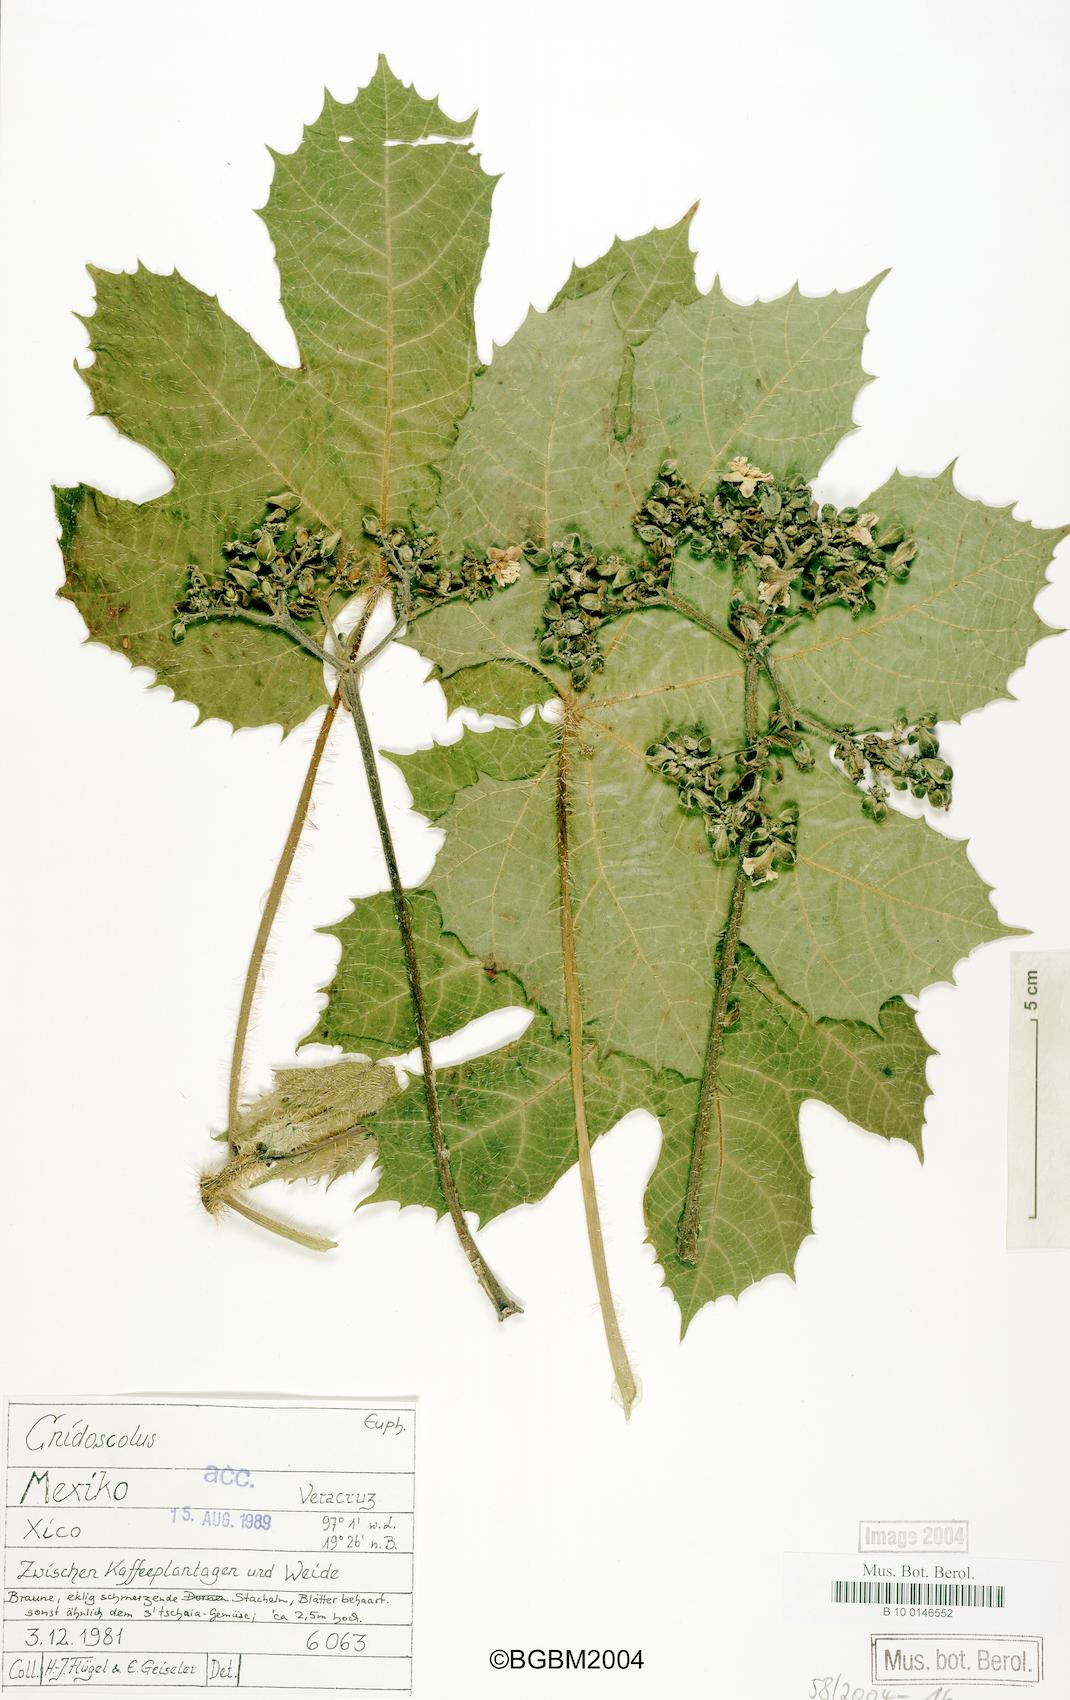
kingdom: Plantae
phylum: Tracheophyta
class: Magnoliopsida
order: Malpighiales
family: Euphorbiaceae
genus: Cnidoscolus
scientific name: Cnidoscolus
